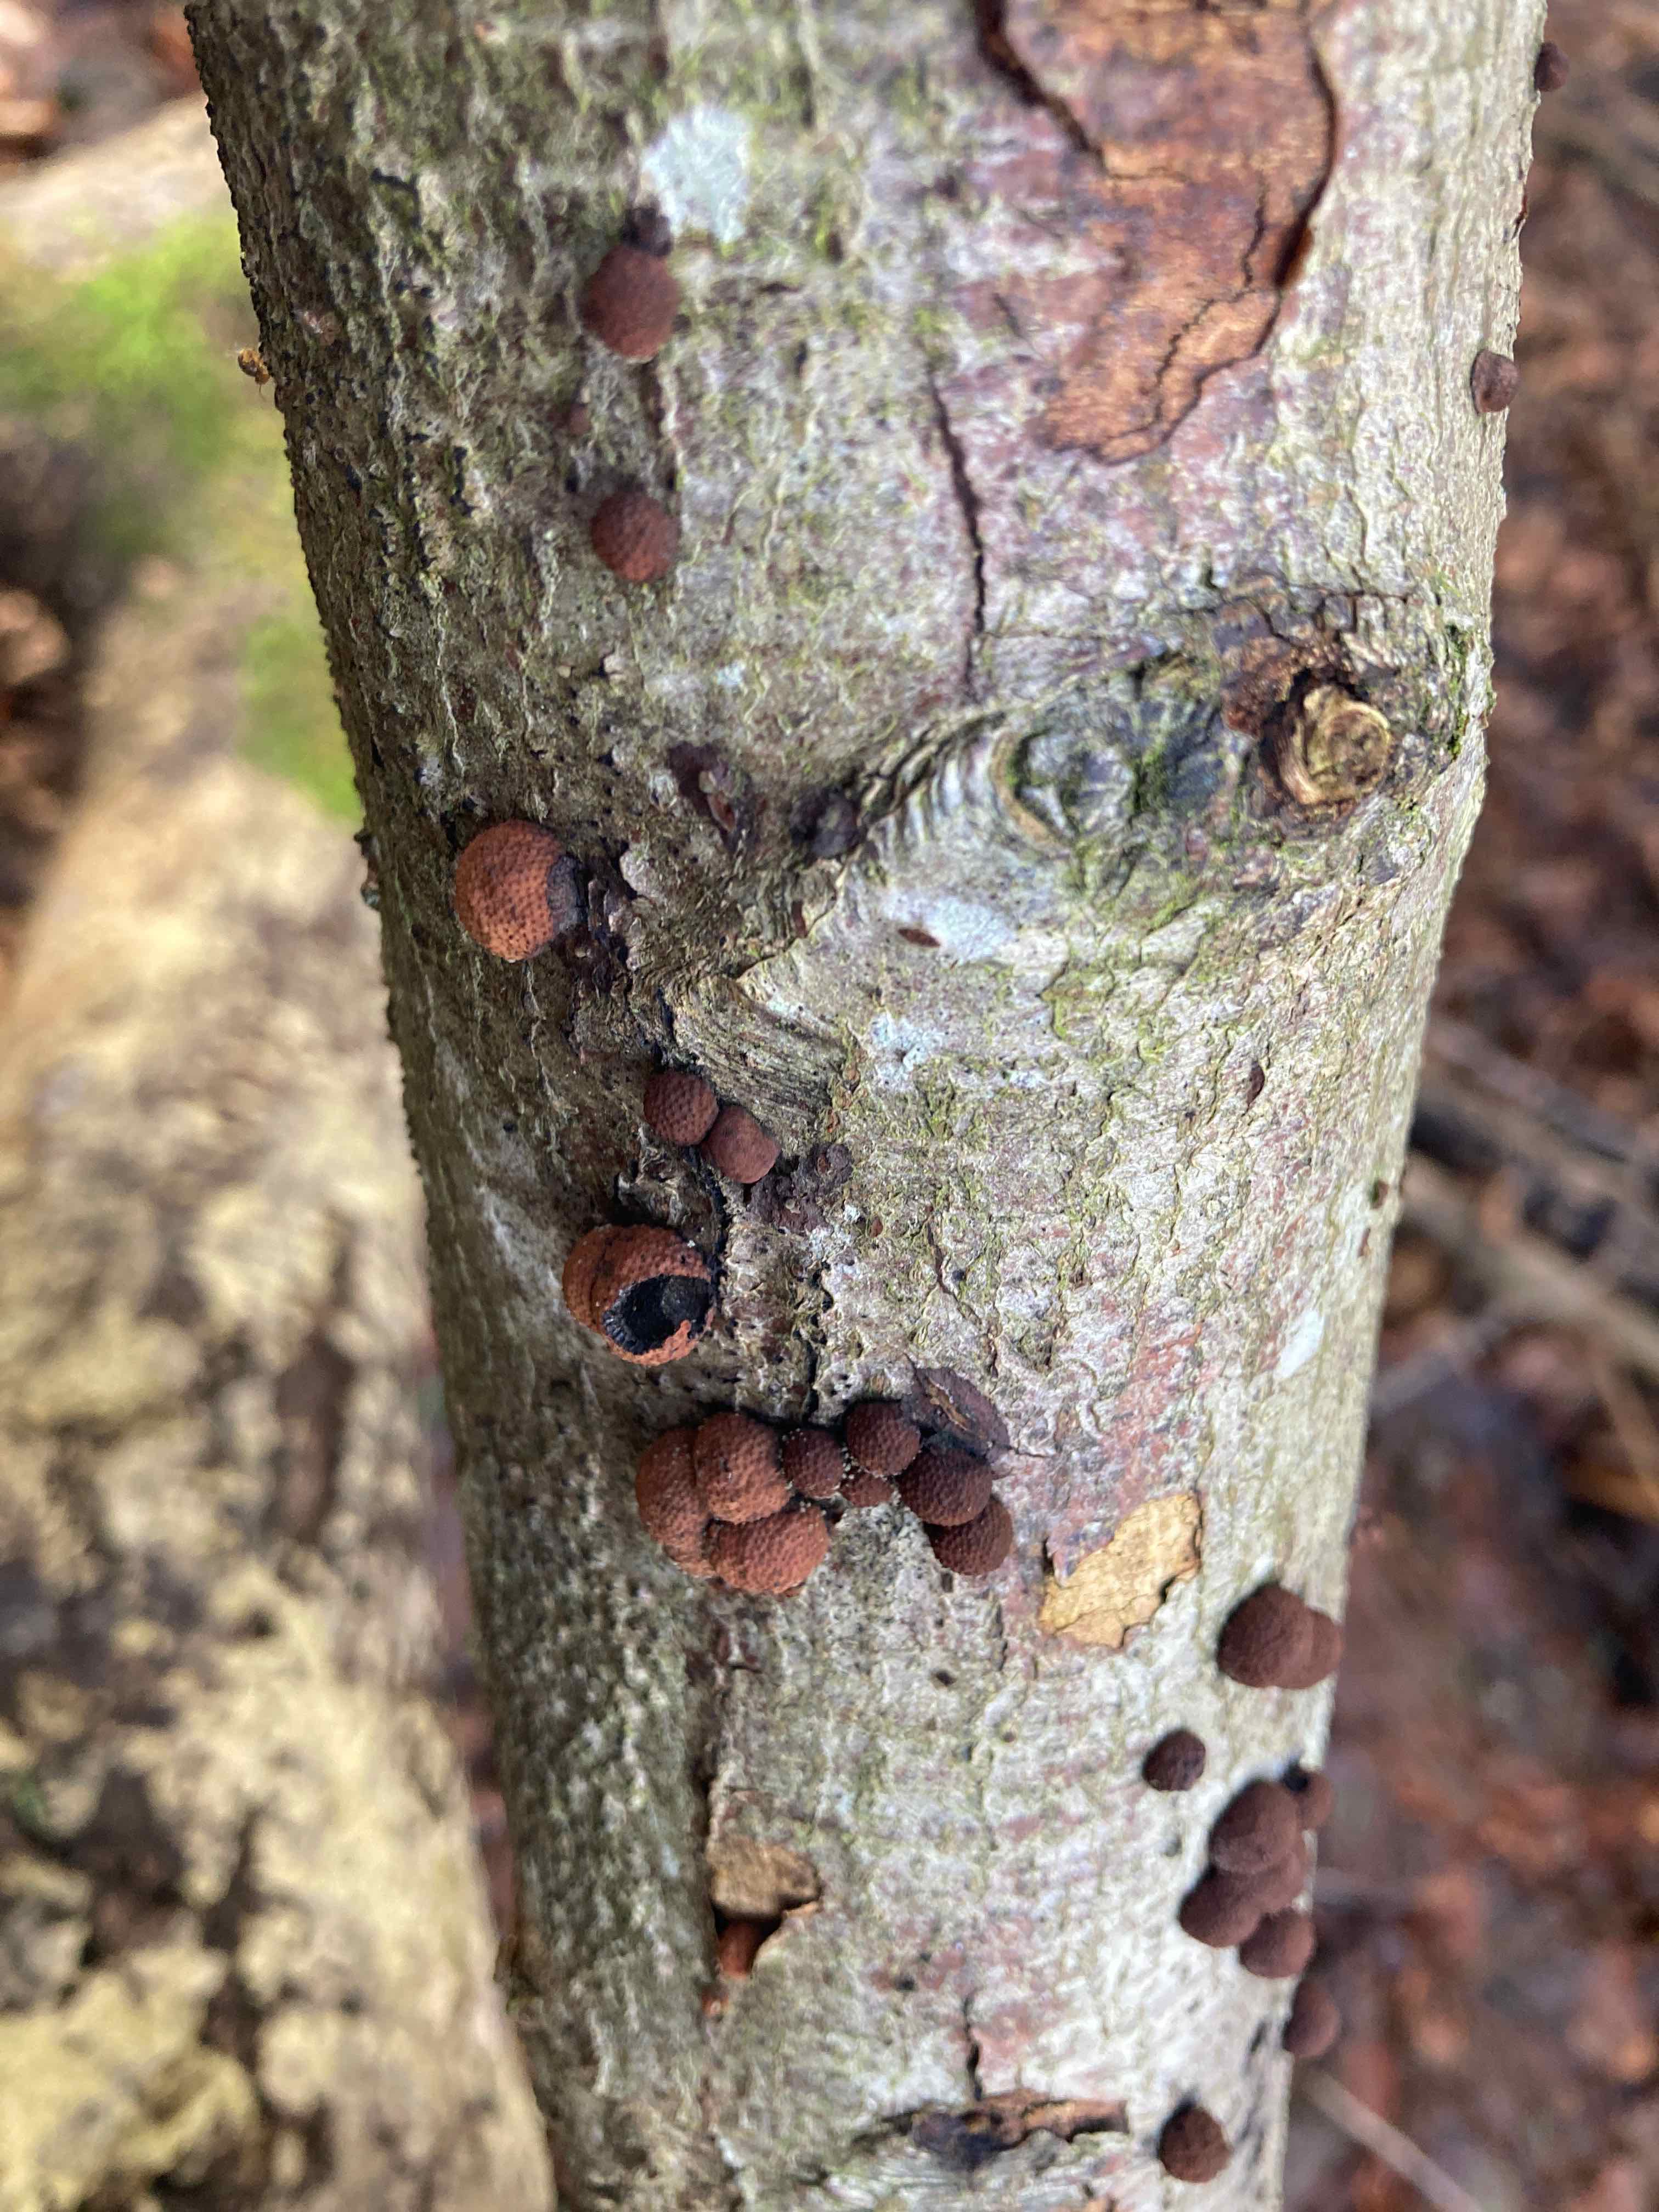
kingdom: Fungi
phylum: Ascomycota
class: Sordariomycetes
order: Xylariales
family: Hypoxylaceae
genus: Hypoxylon
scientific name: Hypoxylon fragiforme
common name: kuljordbær
